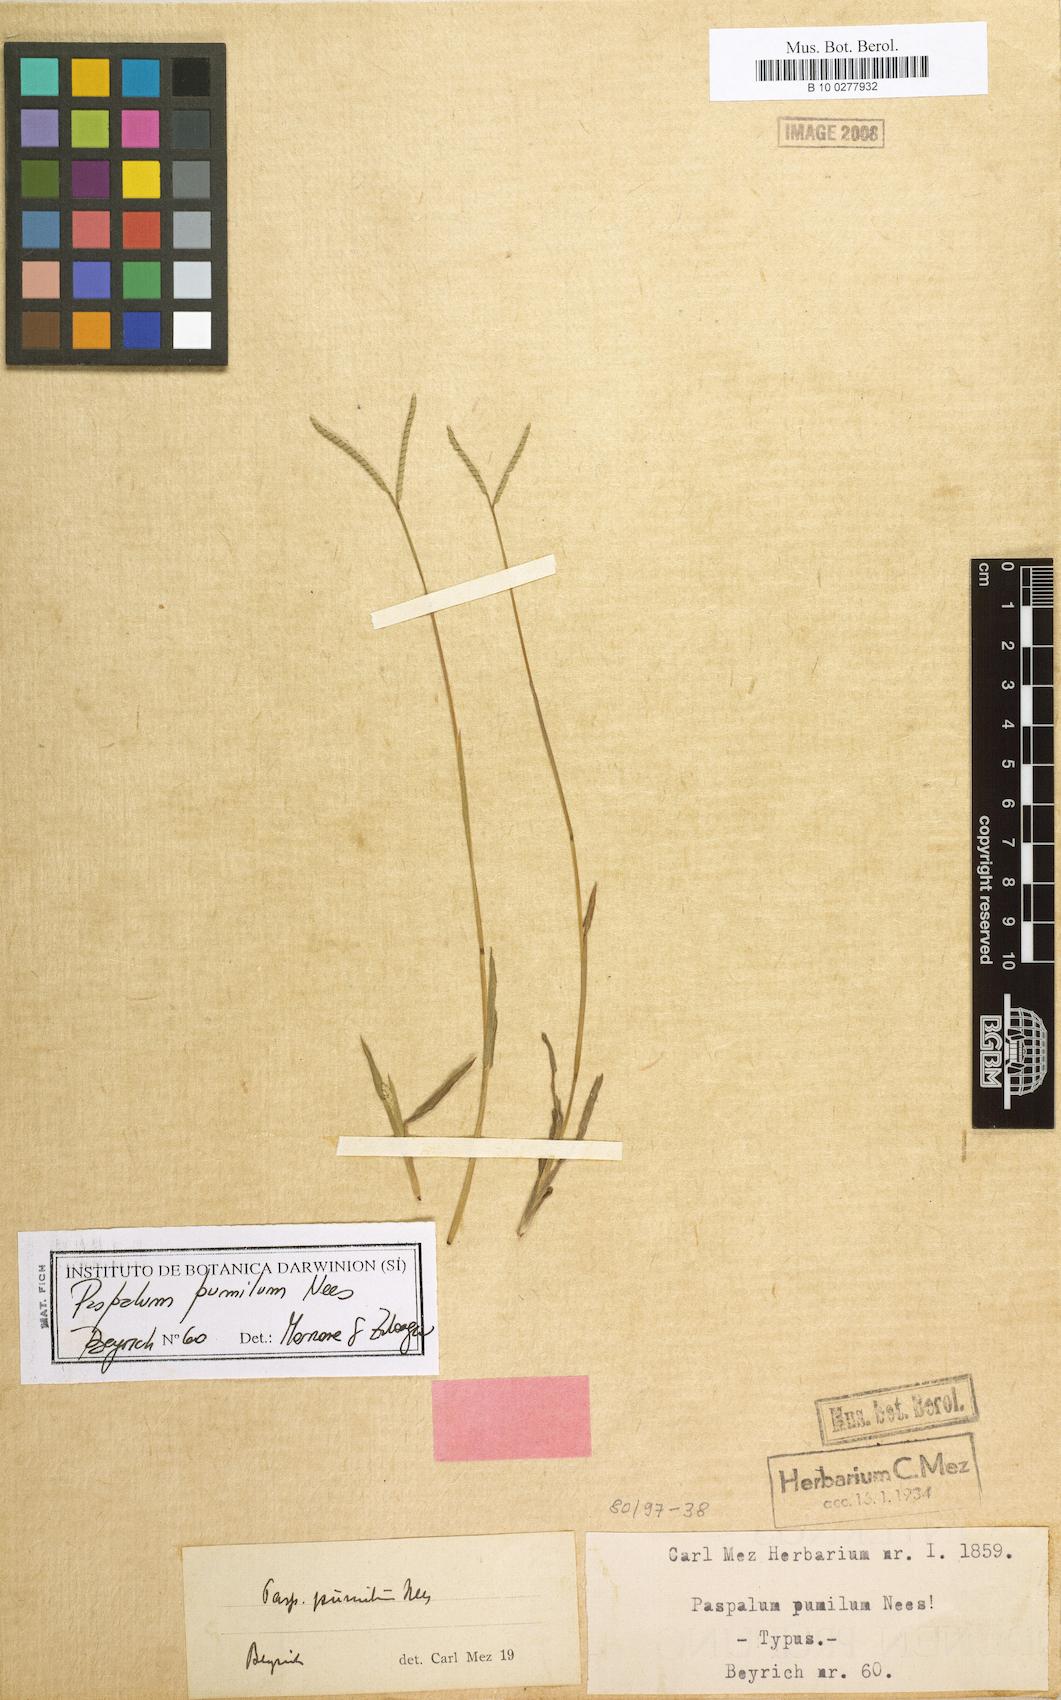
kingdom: Plantae
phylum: Tracheophyta
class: Liliopsida
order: Poales
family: Poaceae
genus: Paspalum
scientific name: Paspalum pumilum
